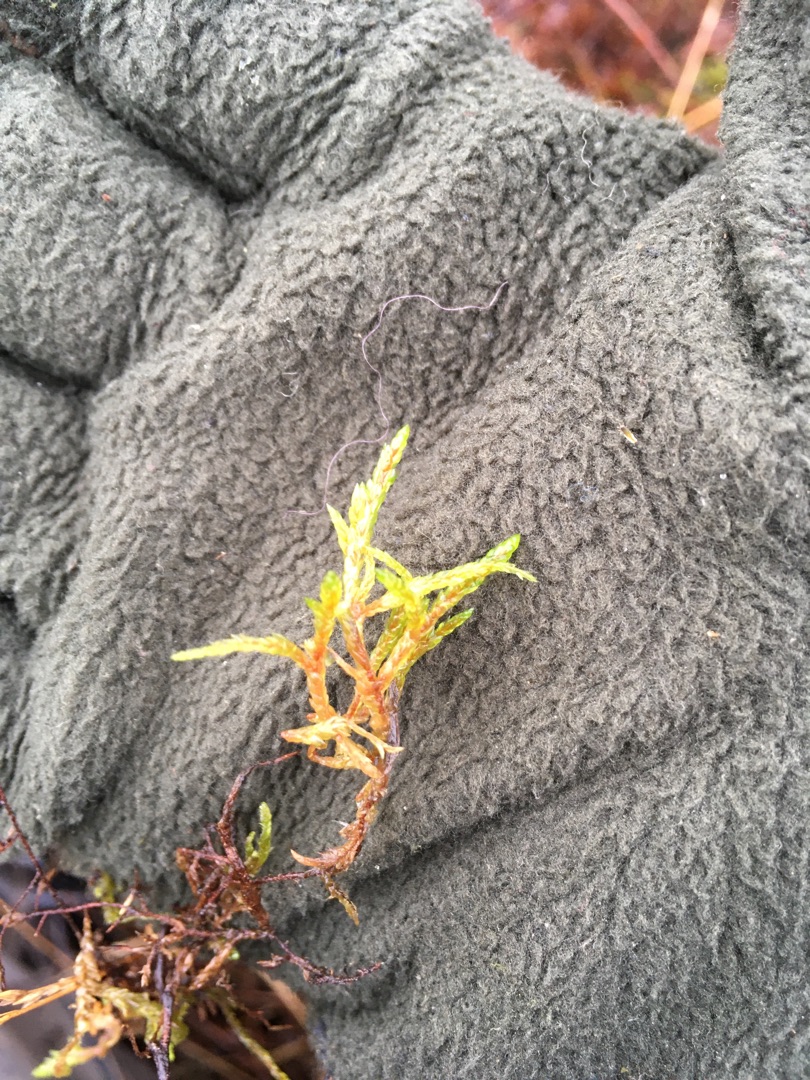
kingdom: Plantae
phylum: Bryophyta
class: Bryopsida
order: Hypnales
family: Hylocomiaceae
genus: Pleurozium
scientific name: Pleurozium schreberi
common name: Trind fyrremos
